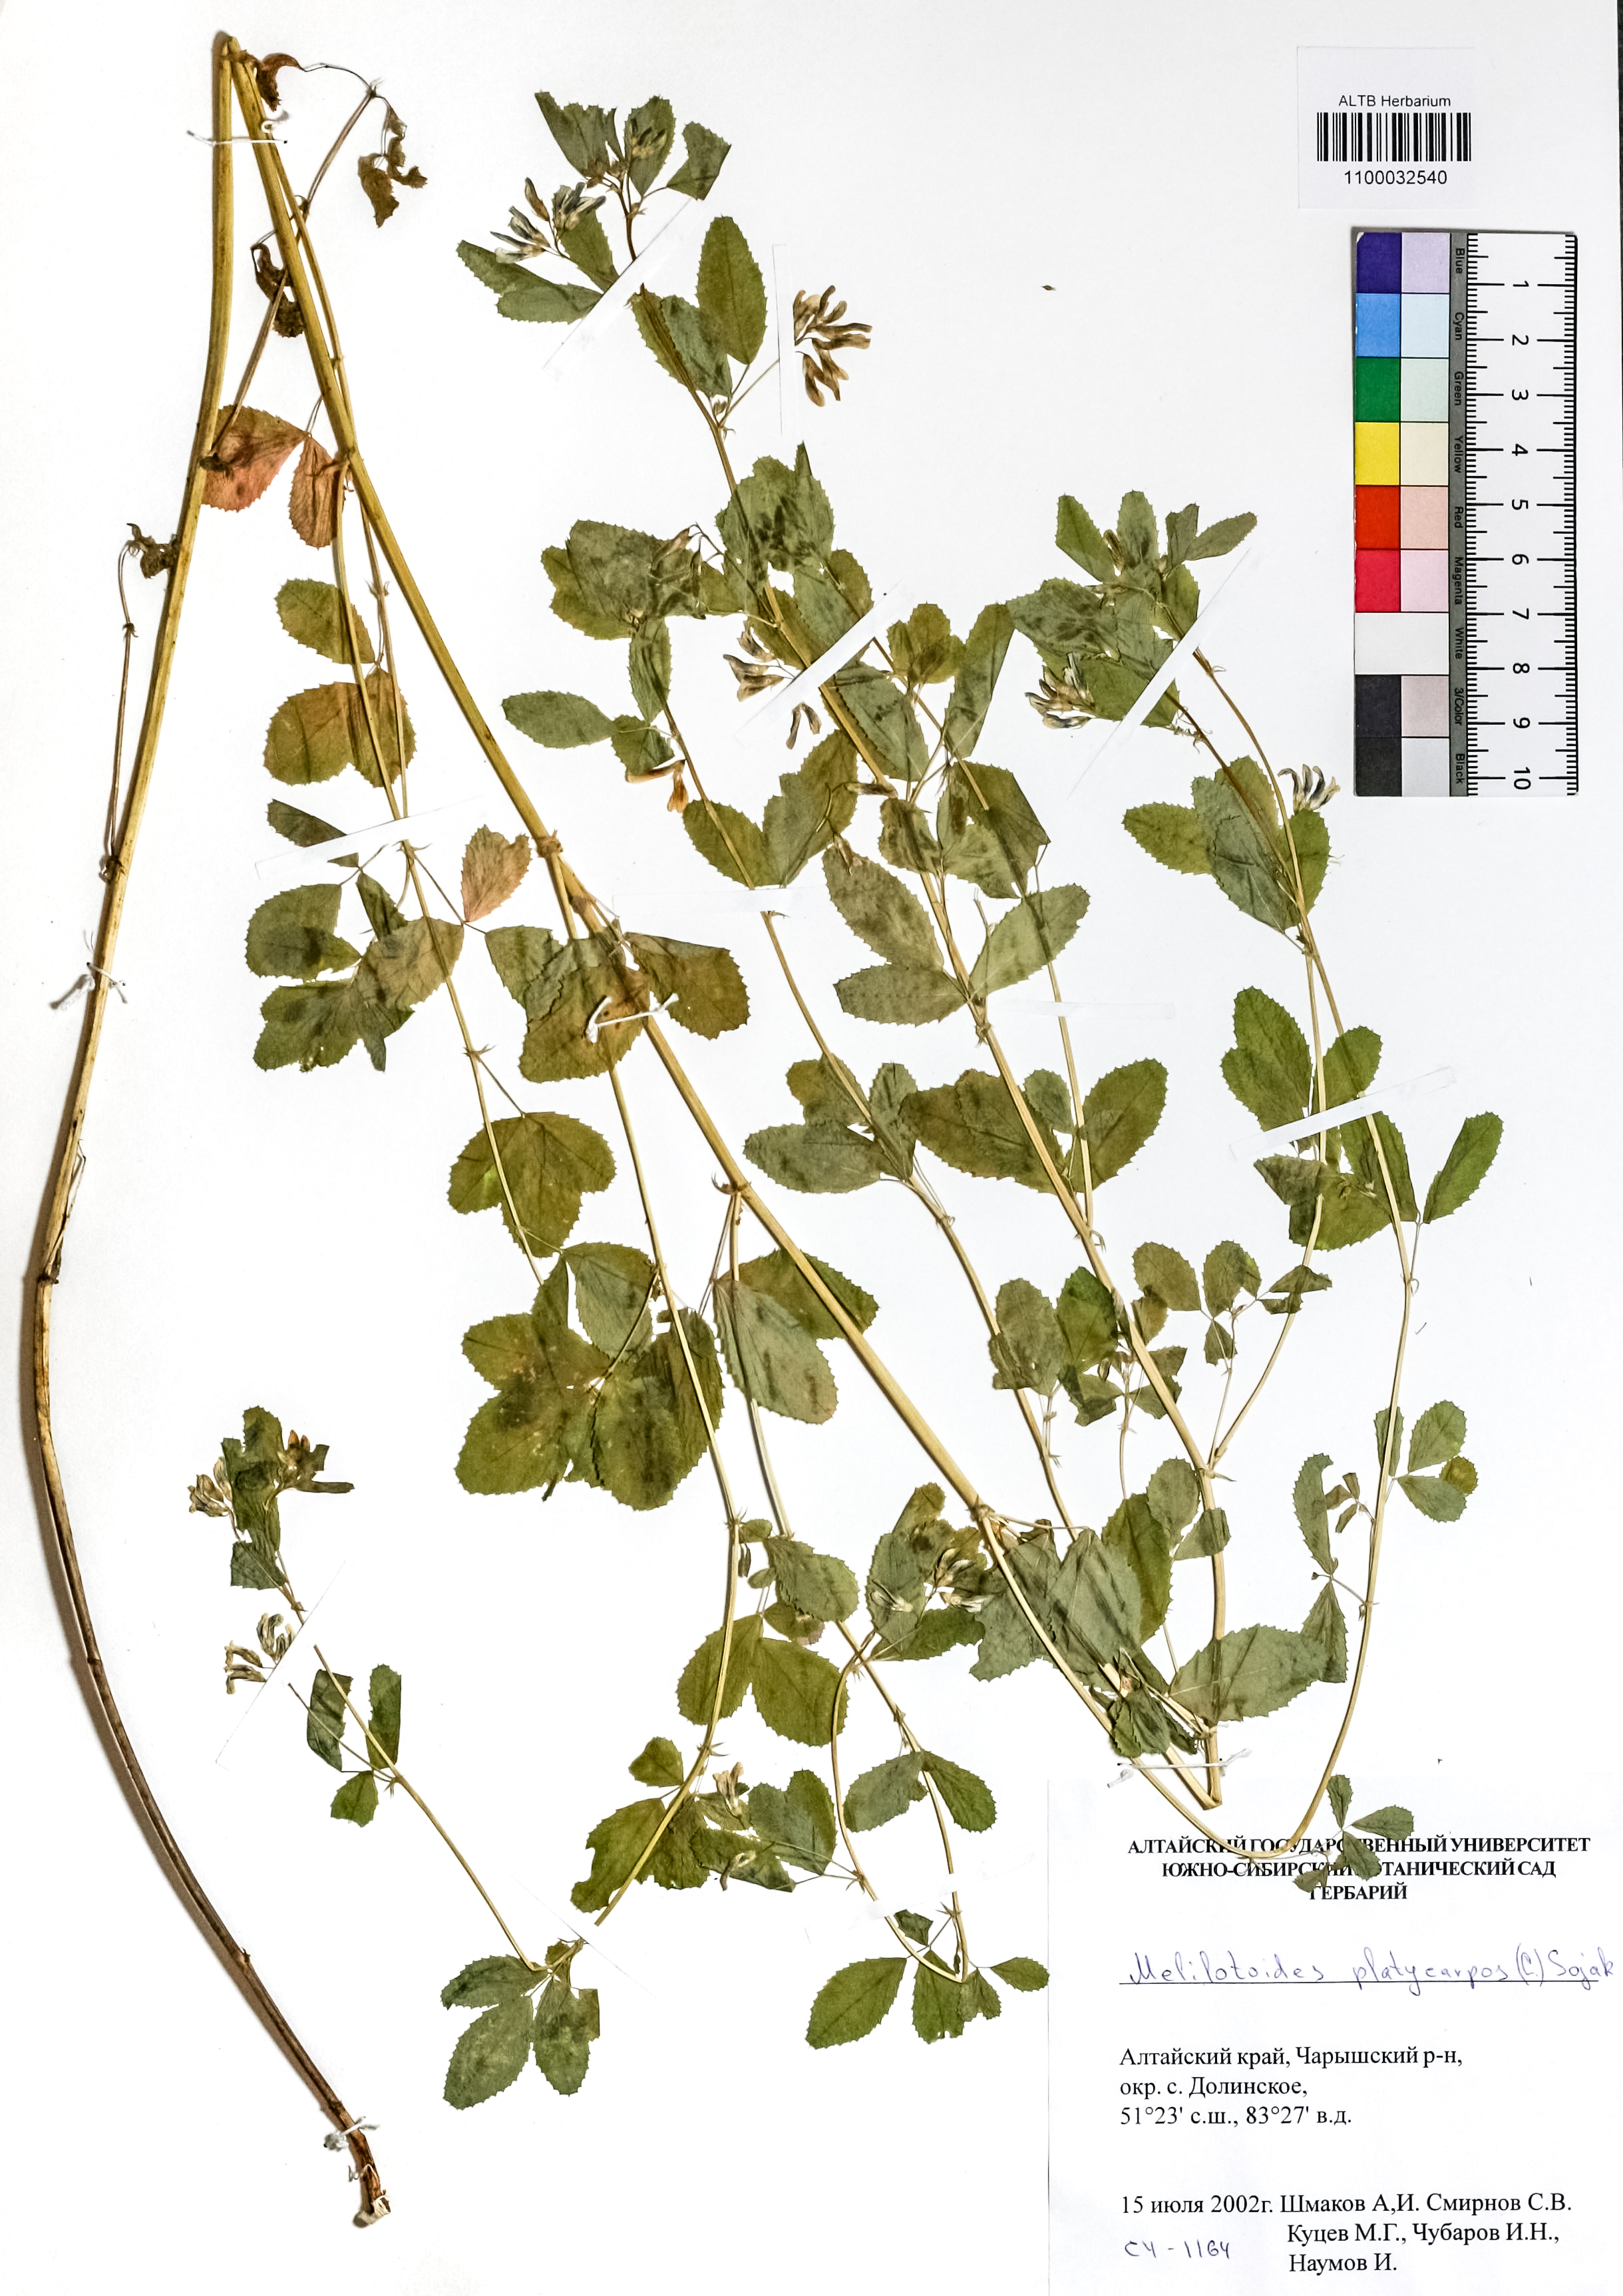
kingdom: Plantae
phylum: Tracheophyta
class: Magnoliopsida
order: Fabales
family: Fabaceae
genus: Medicago
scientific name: Medicago platycarpos
